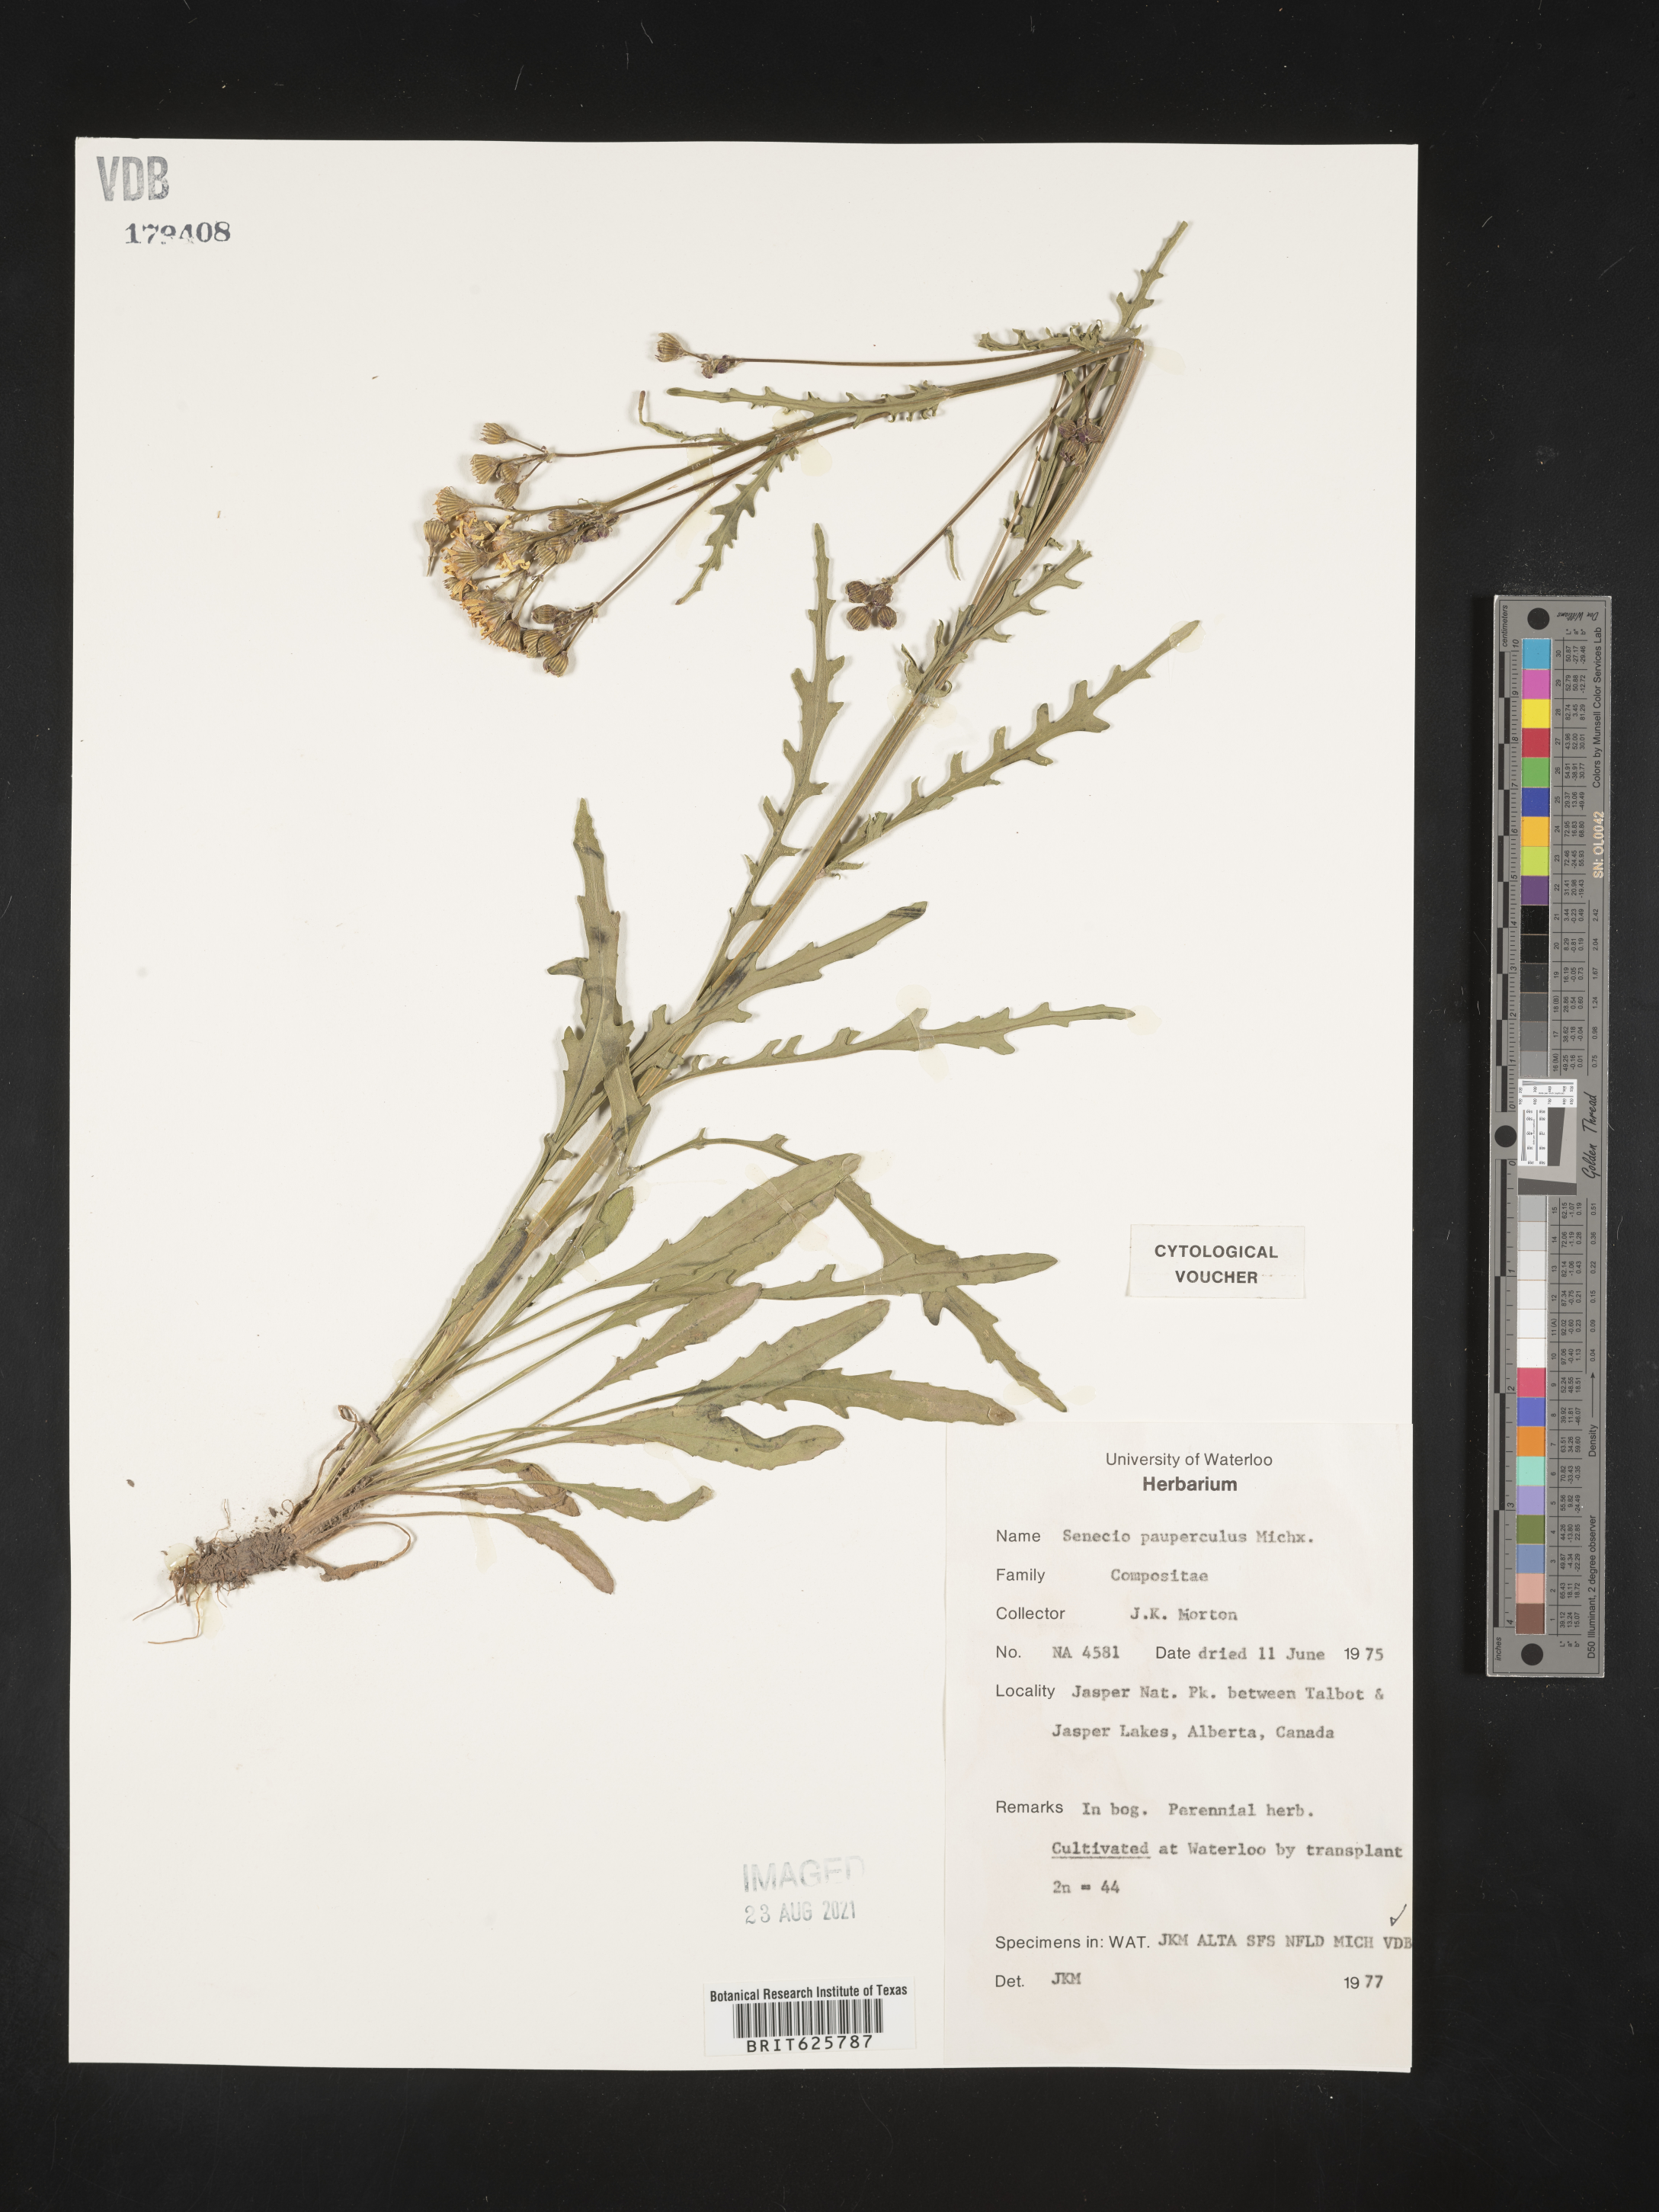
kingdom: Plantae
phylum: Tracheophyta
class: Magnoliopsida
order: Asterales
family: Asteraceae
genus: Packera
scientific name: Packera paupercula
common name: Balsam groundsel
